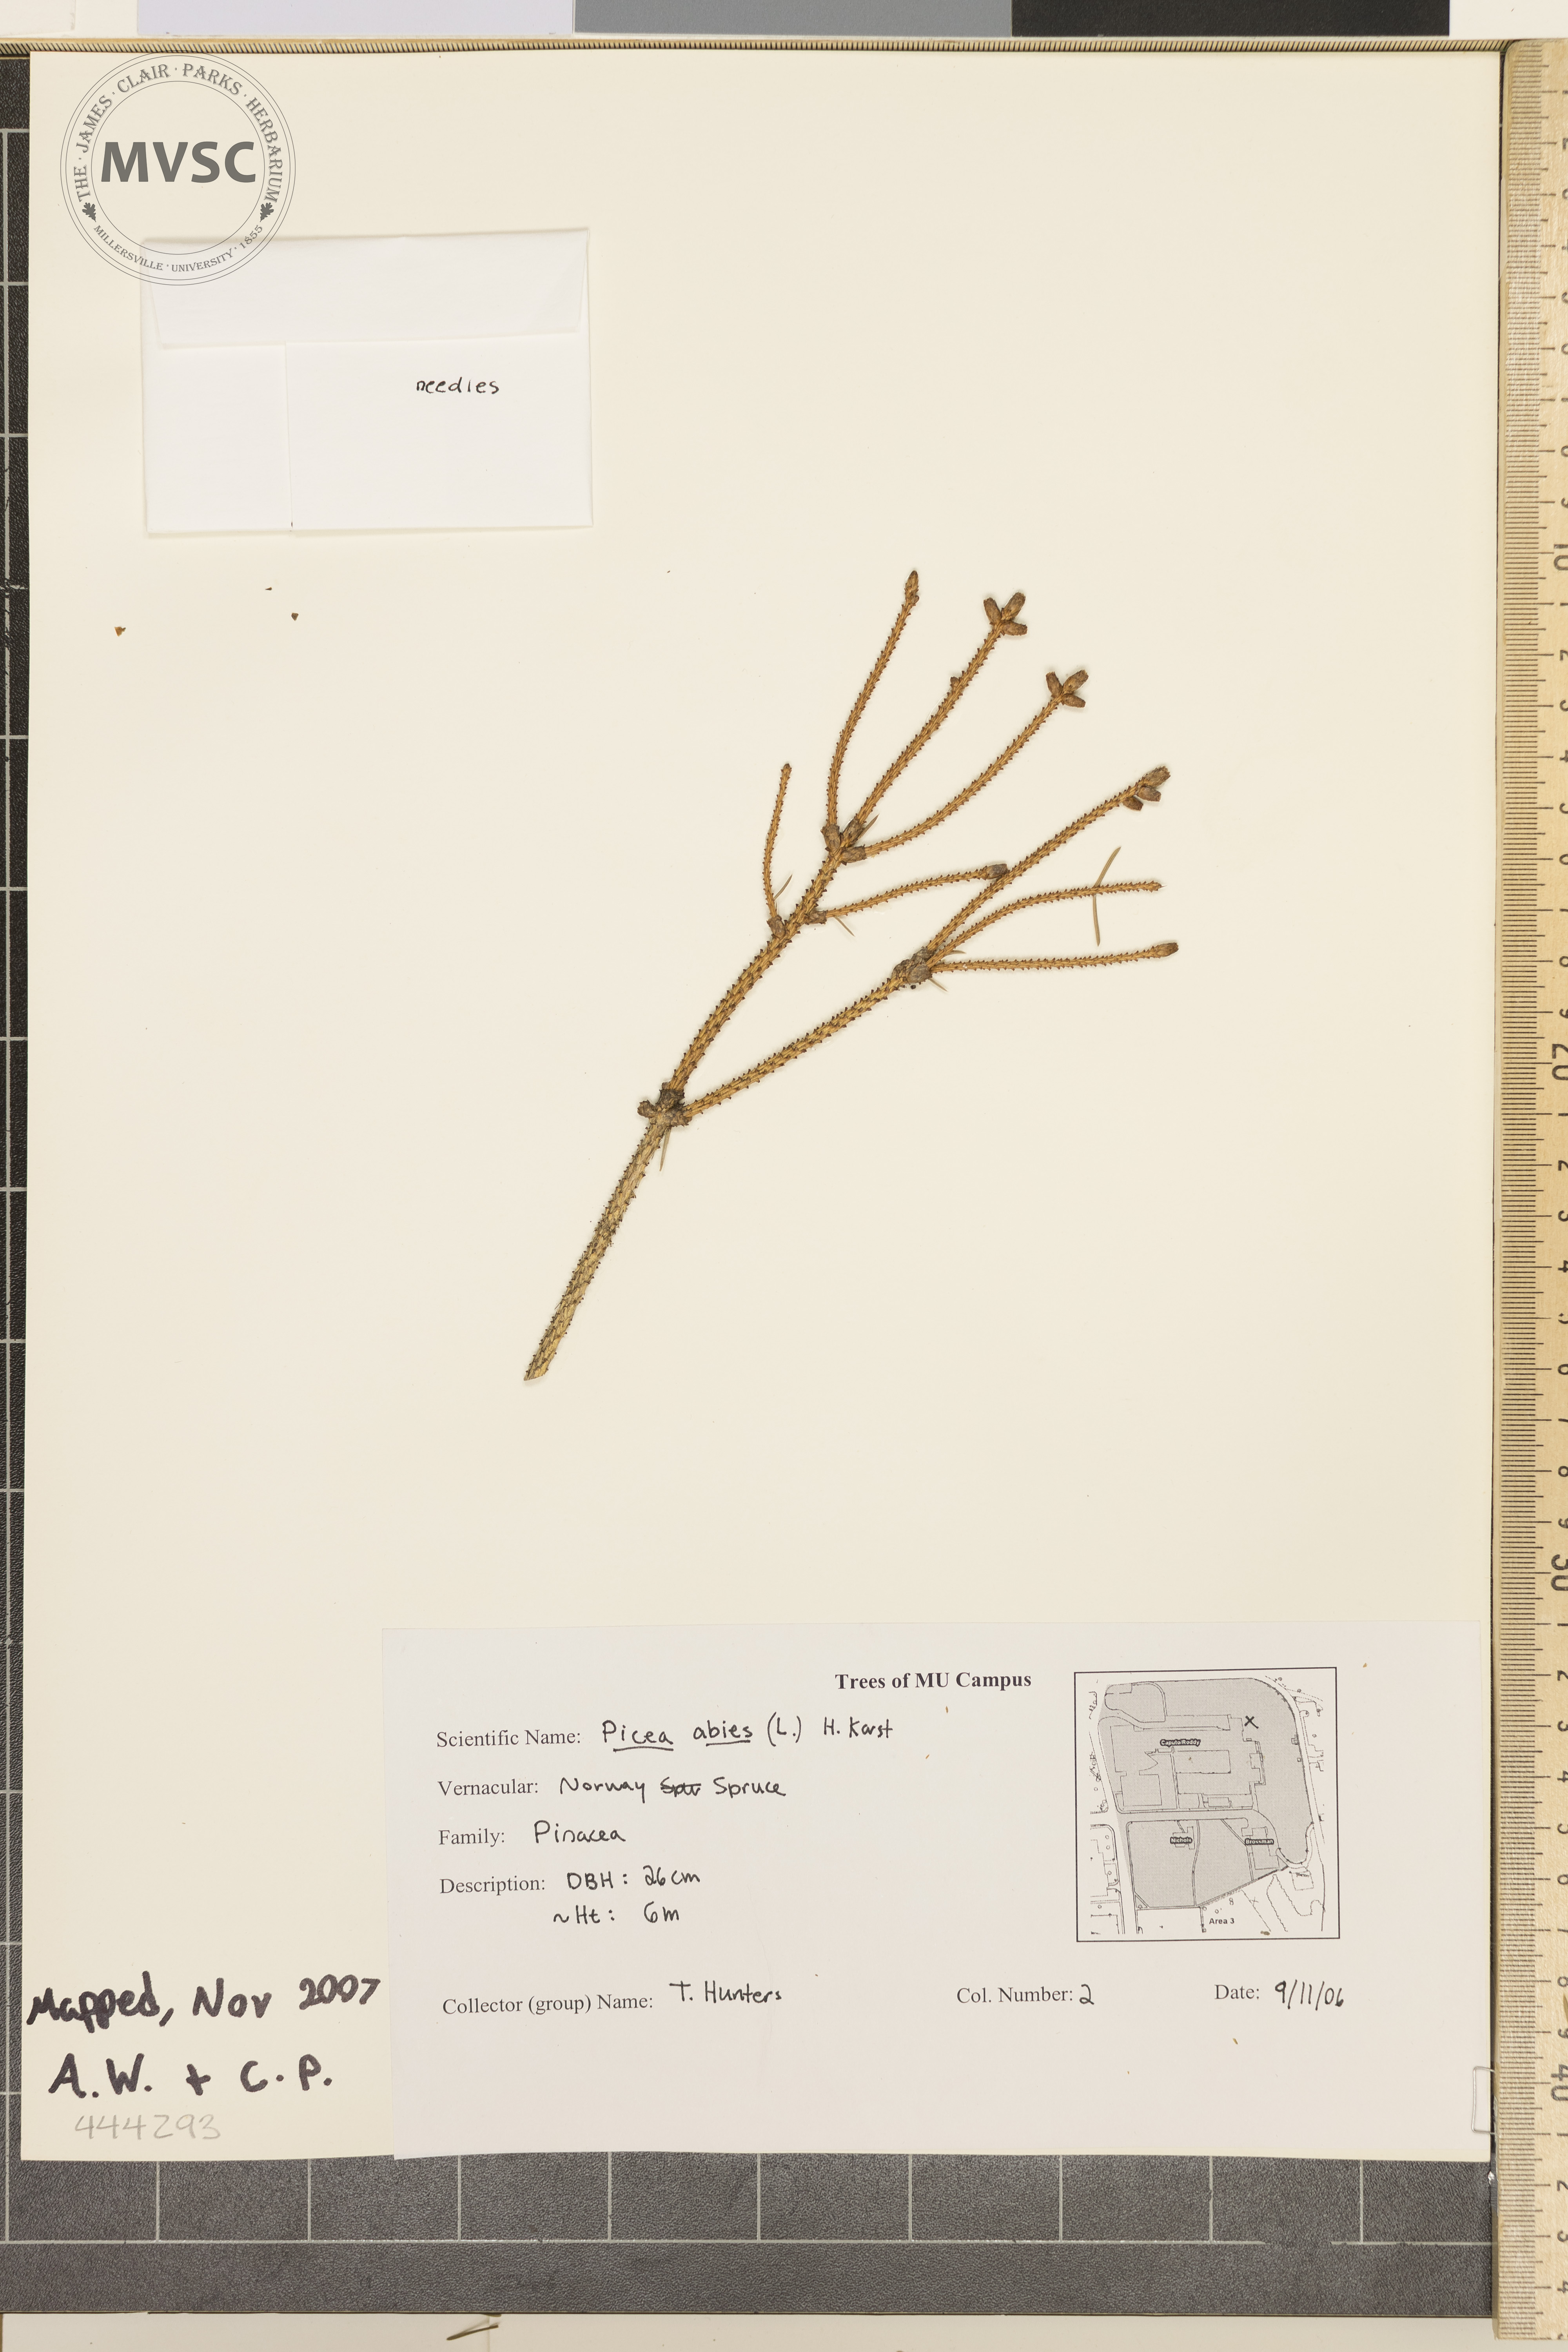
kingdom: Plantae
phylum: Tracheophyta
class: Pinopsida
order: Pinales
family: Pinaceae
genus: Picea
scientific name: Picea abies
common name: Norway Spruce
